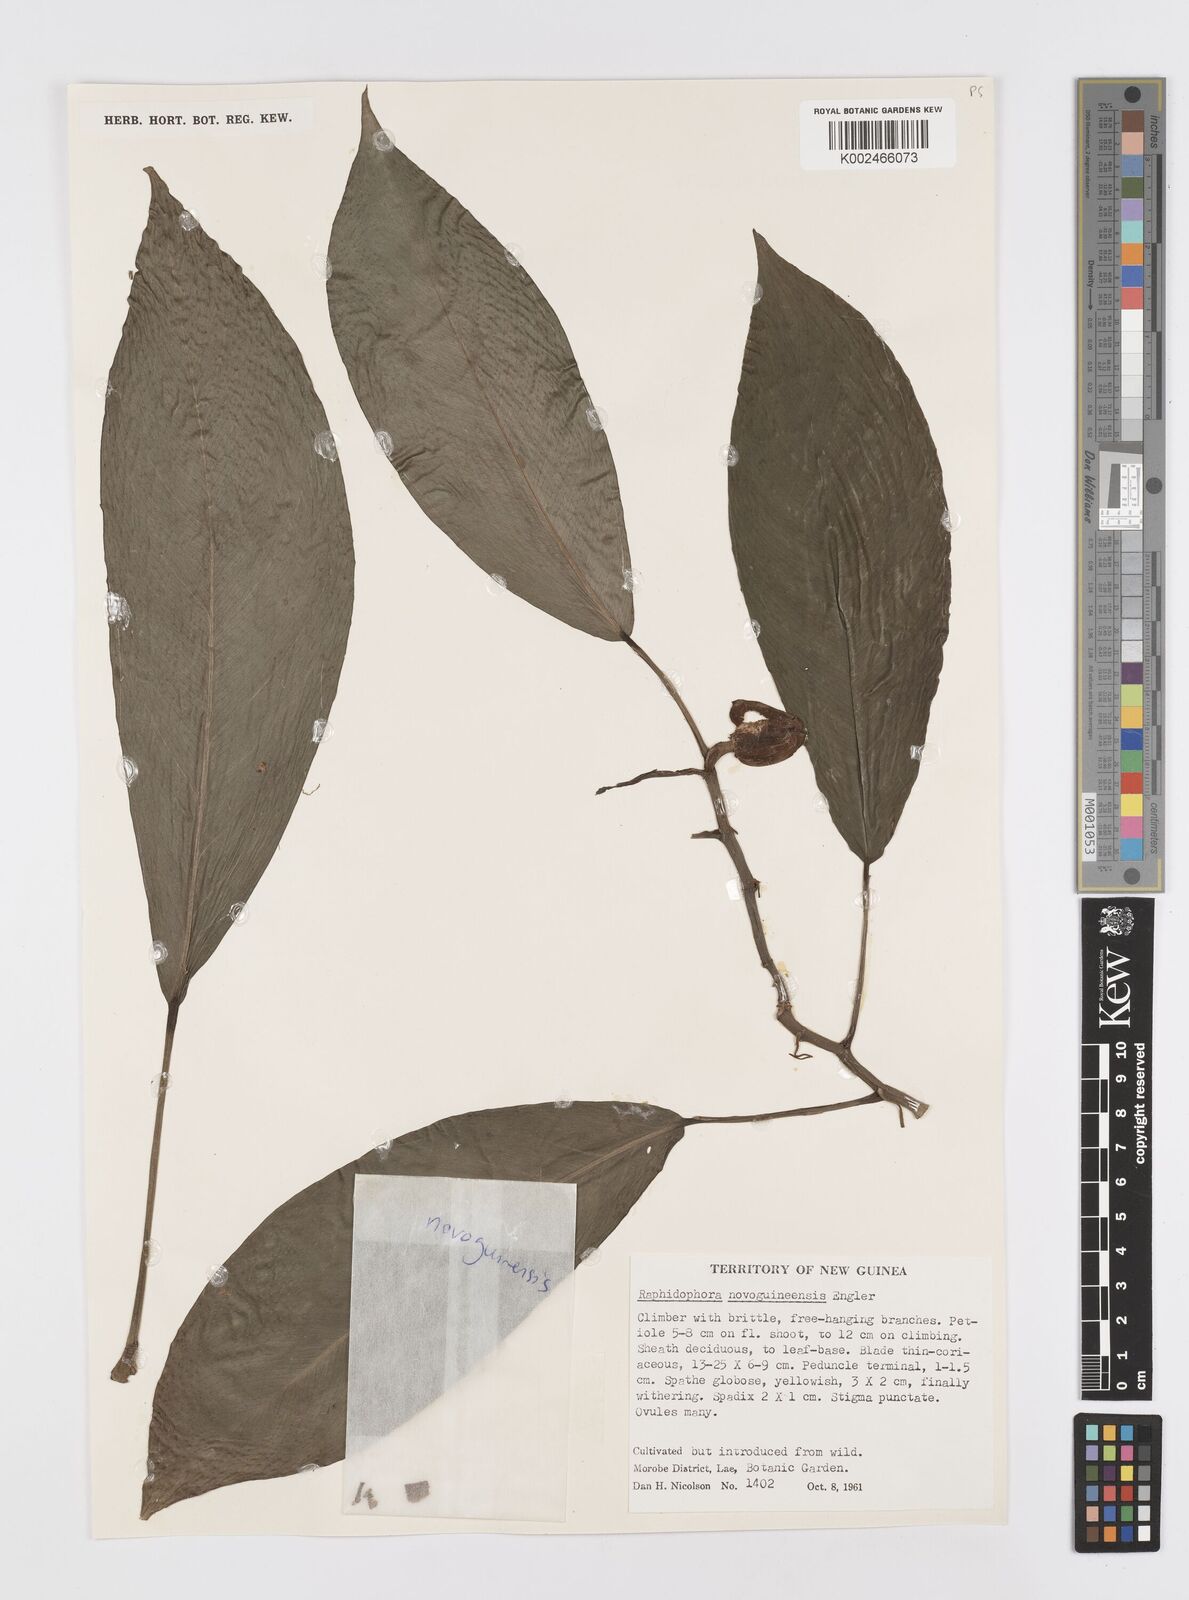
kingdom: Plantae
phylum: Tracheophyta
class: Liliopsida
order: Alismatales
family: Araceae
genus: Rhaphidophora
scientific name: Rhaphidophora neoguineensis
